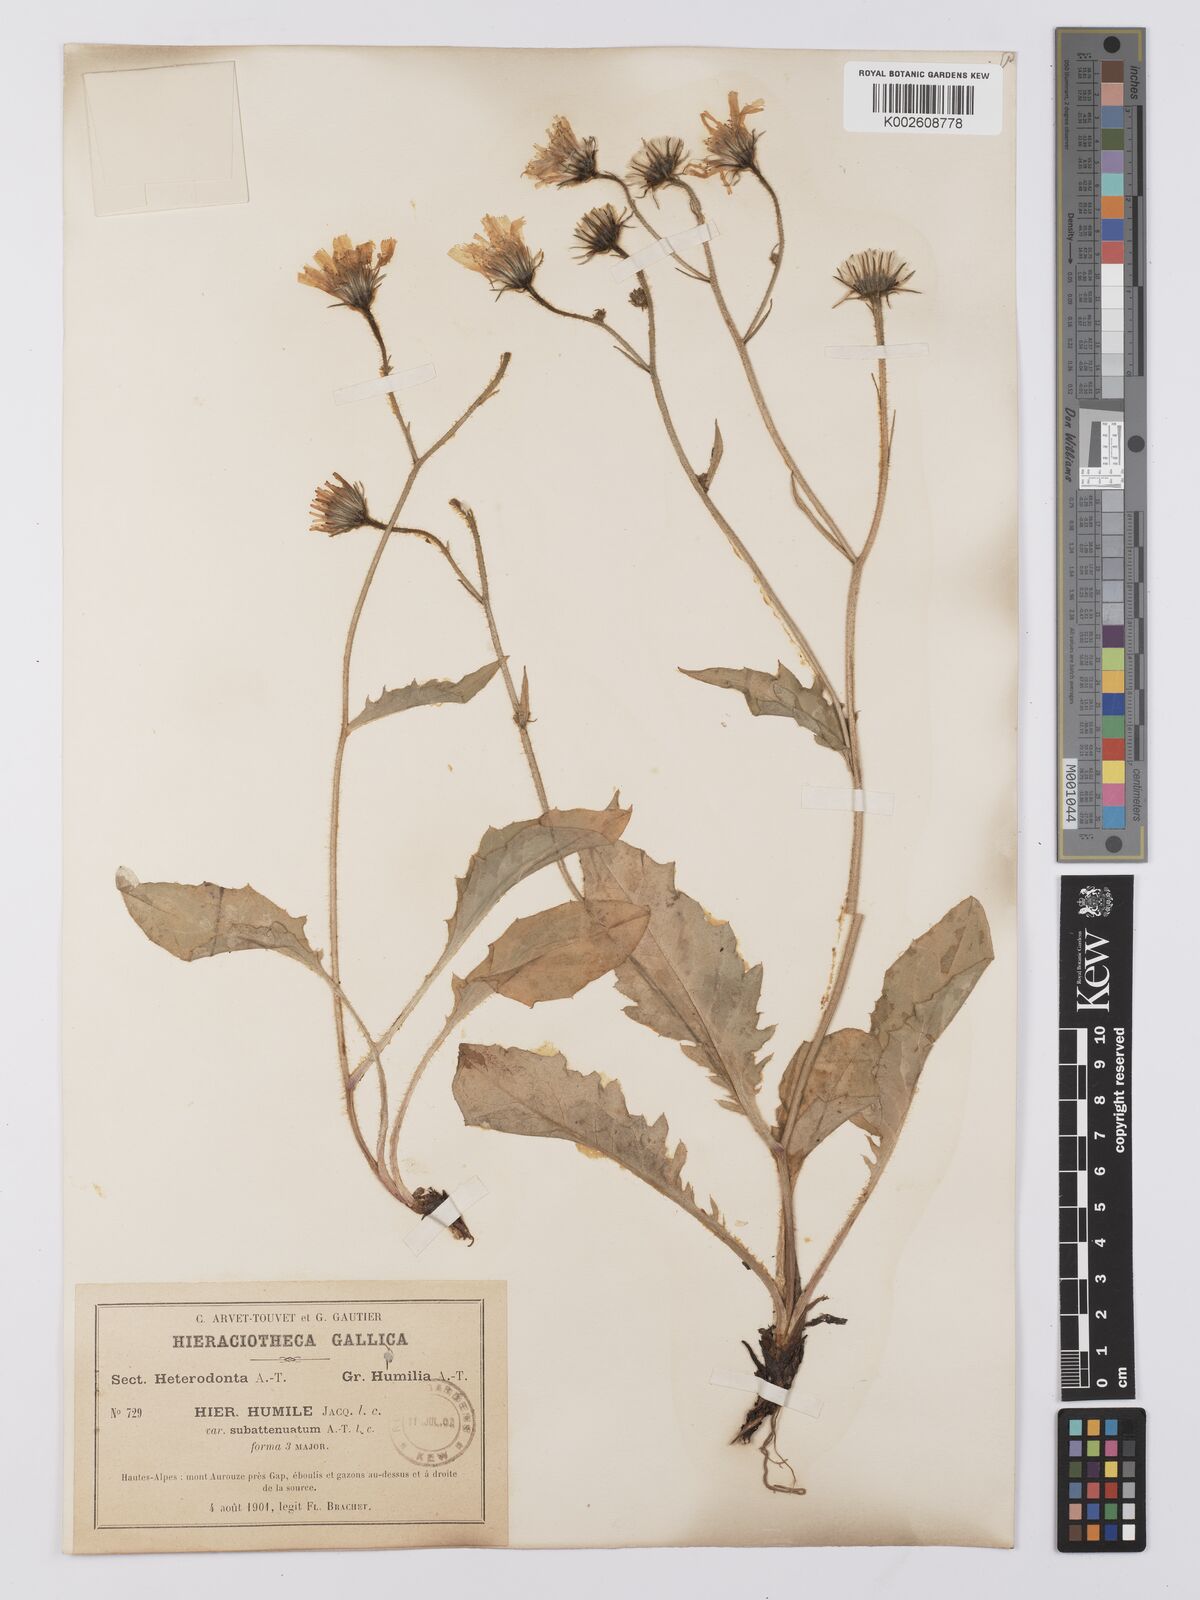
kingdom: Plantae
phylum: Tracheophyta
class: Magnoliopsida
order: Asterales
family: Asteraceae
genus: Hieracium
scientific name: Hieracium humile
